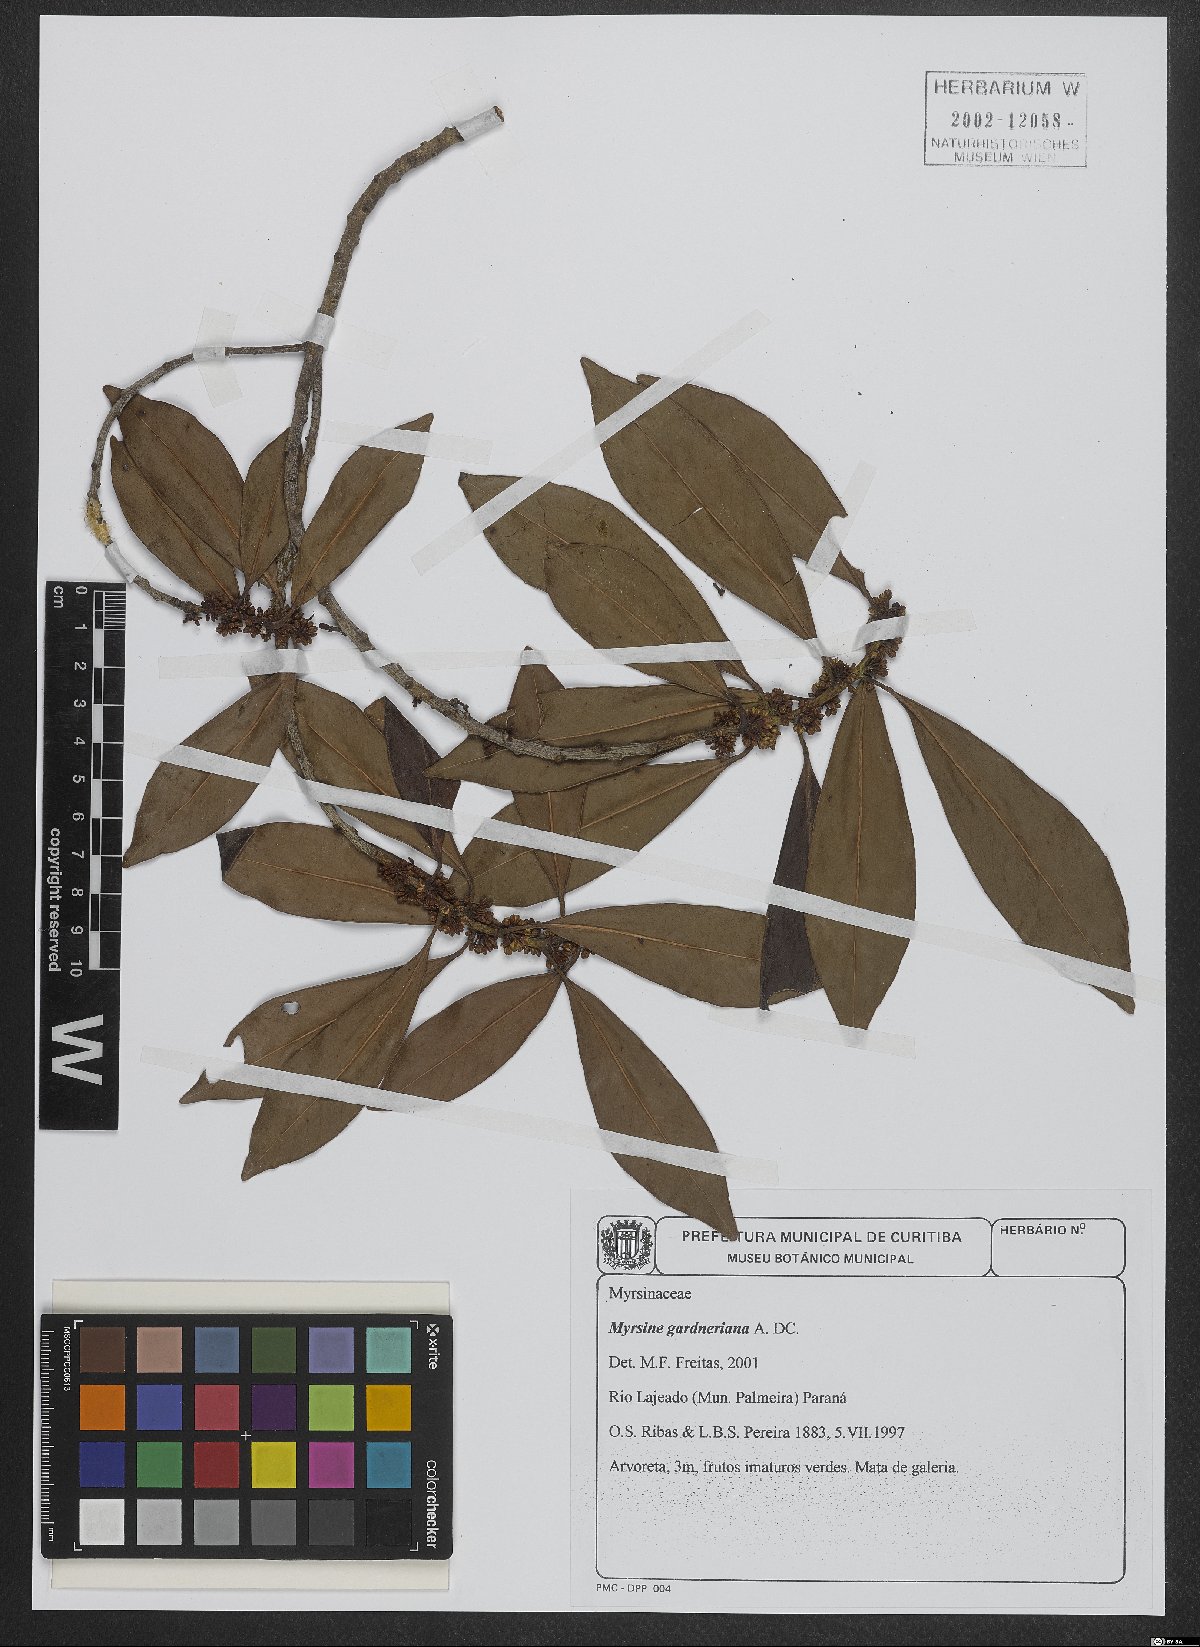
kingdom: Plantae
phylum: Tracheophyta
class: Magnoliopsida
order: Ericales
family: Primulaceae
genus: Myrsine
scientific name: Myrsine gardneriana
